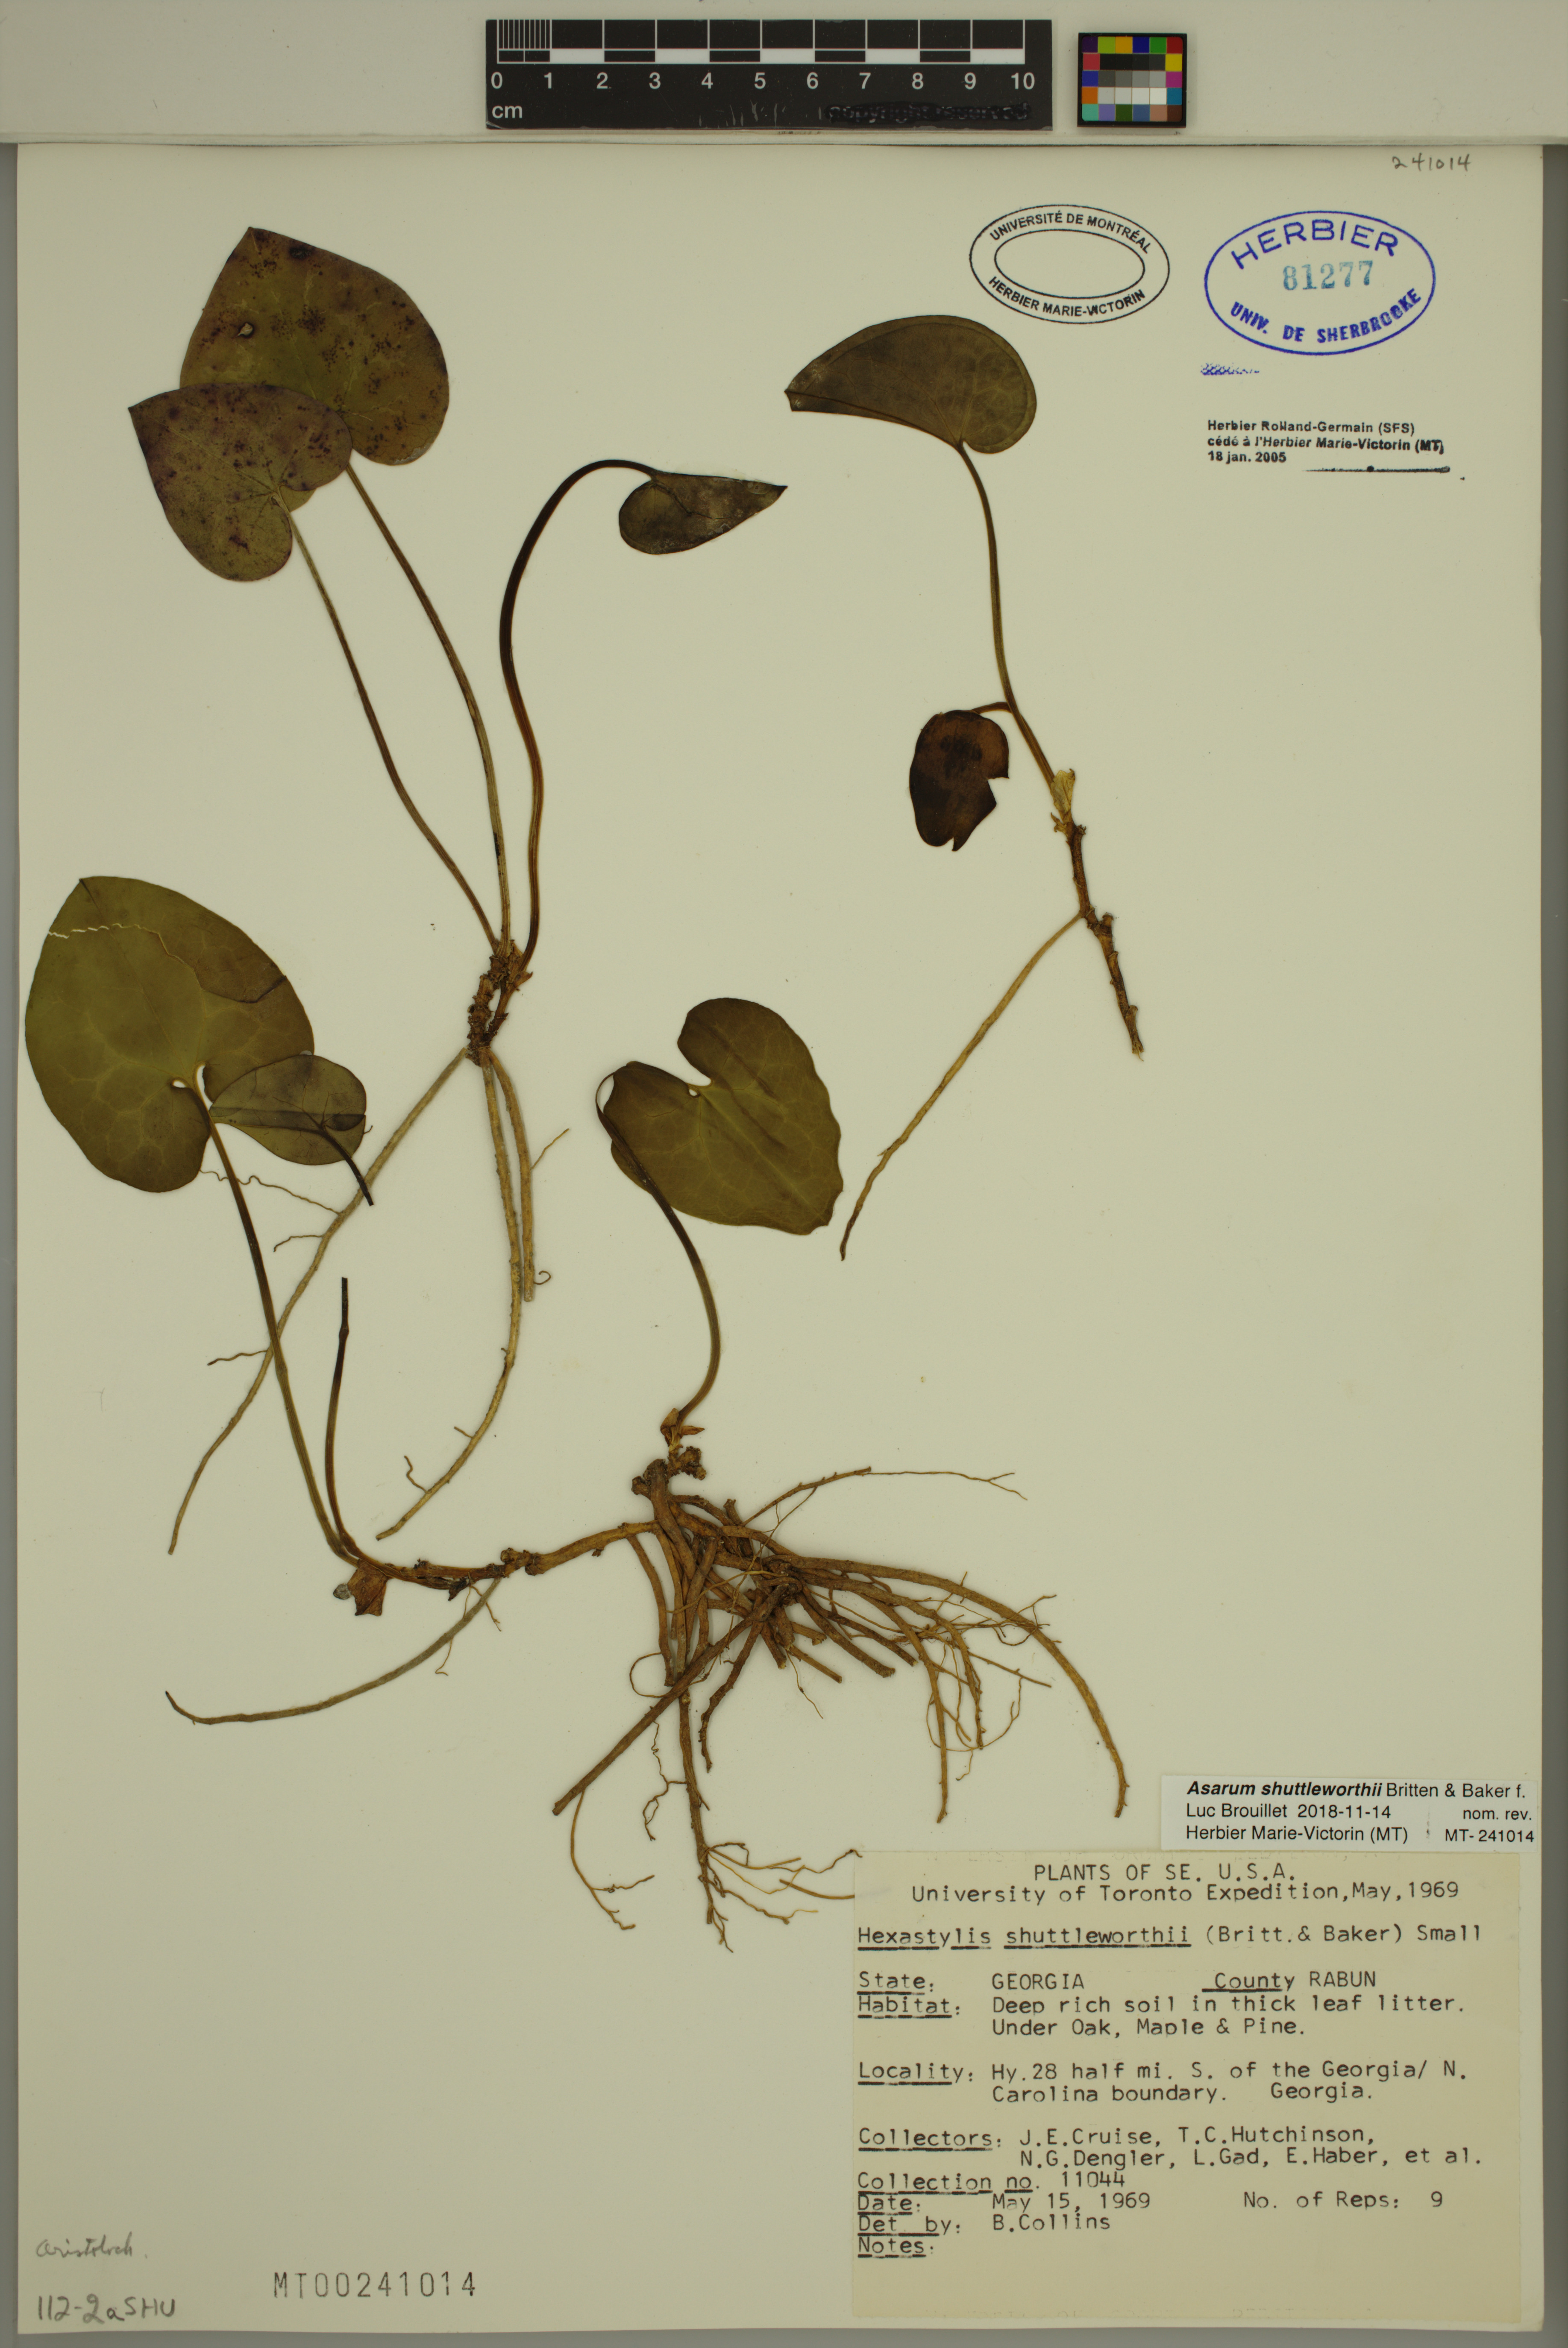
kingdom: Plantae
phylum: Tracheophyta
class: Magnoliopsida
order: Piperales
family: Aristolochiaceae
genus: Hexastylis
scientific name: Hexastylis shuttleworthii
